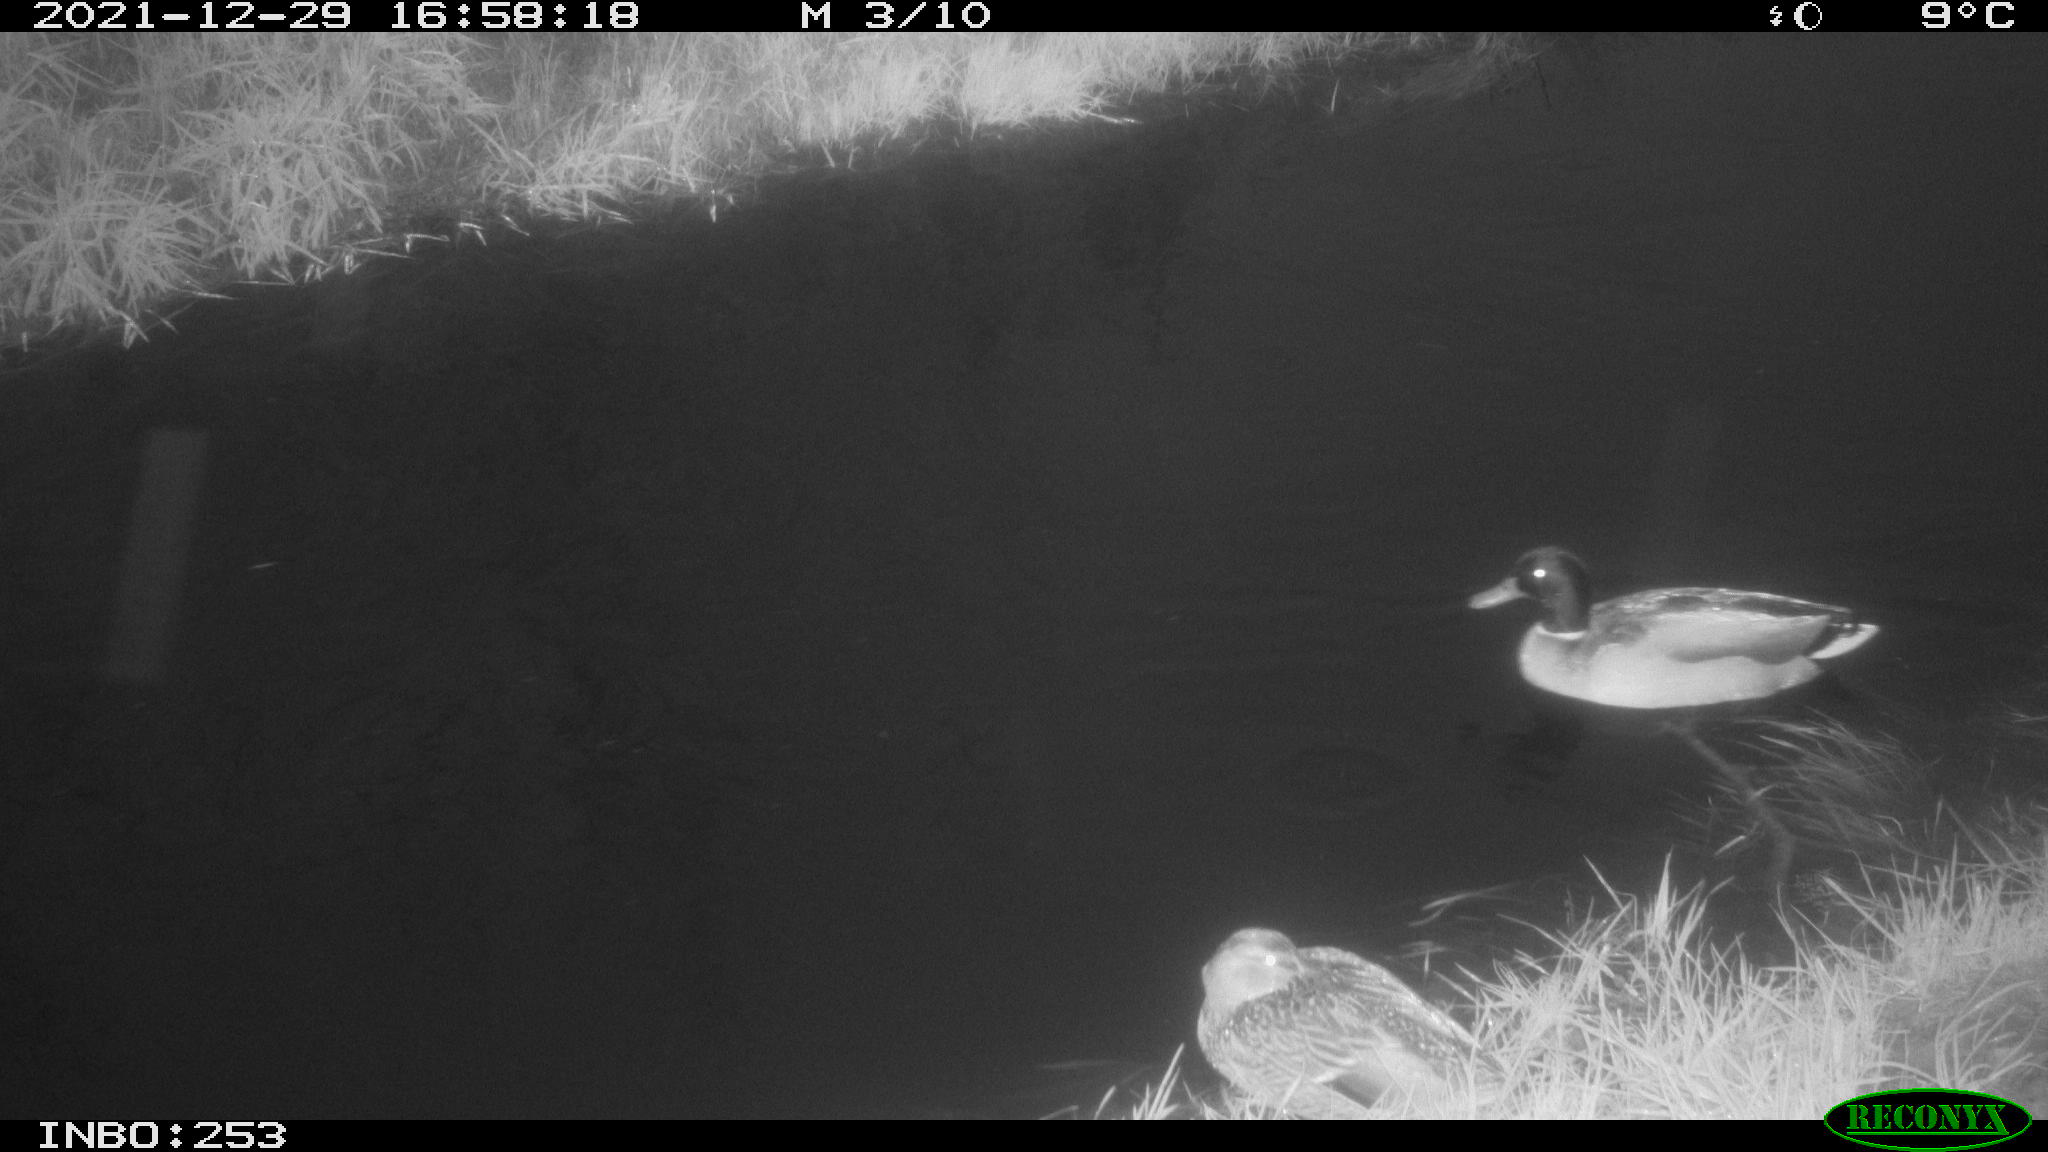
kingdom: Animalia
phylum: Chordata
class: Aves
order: Anseriformes
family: Anatidae
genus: Anas
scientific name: Anas
